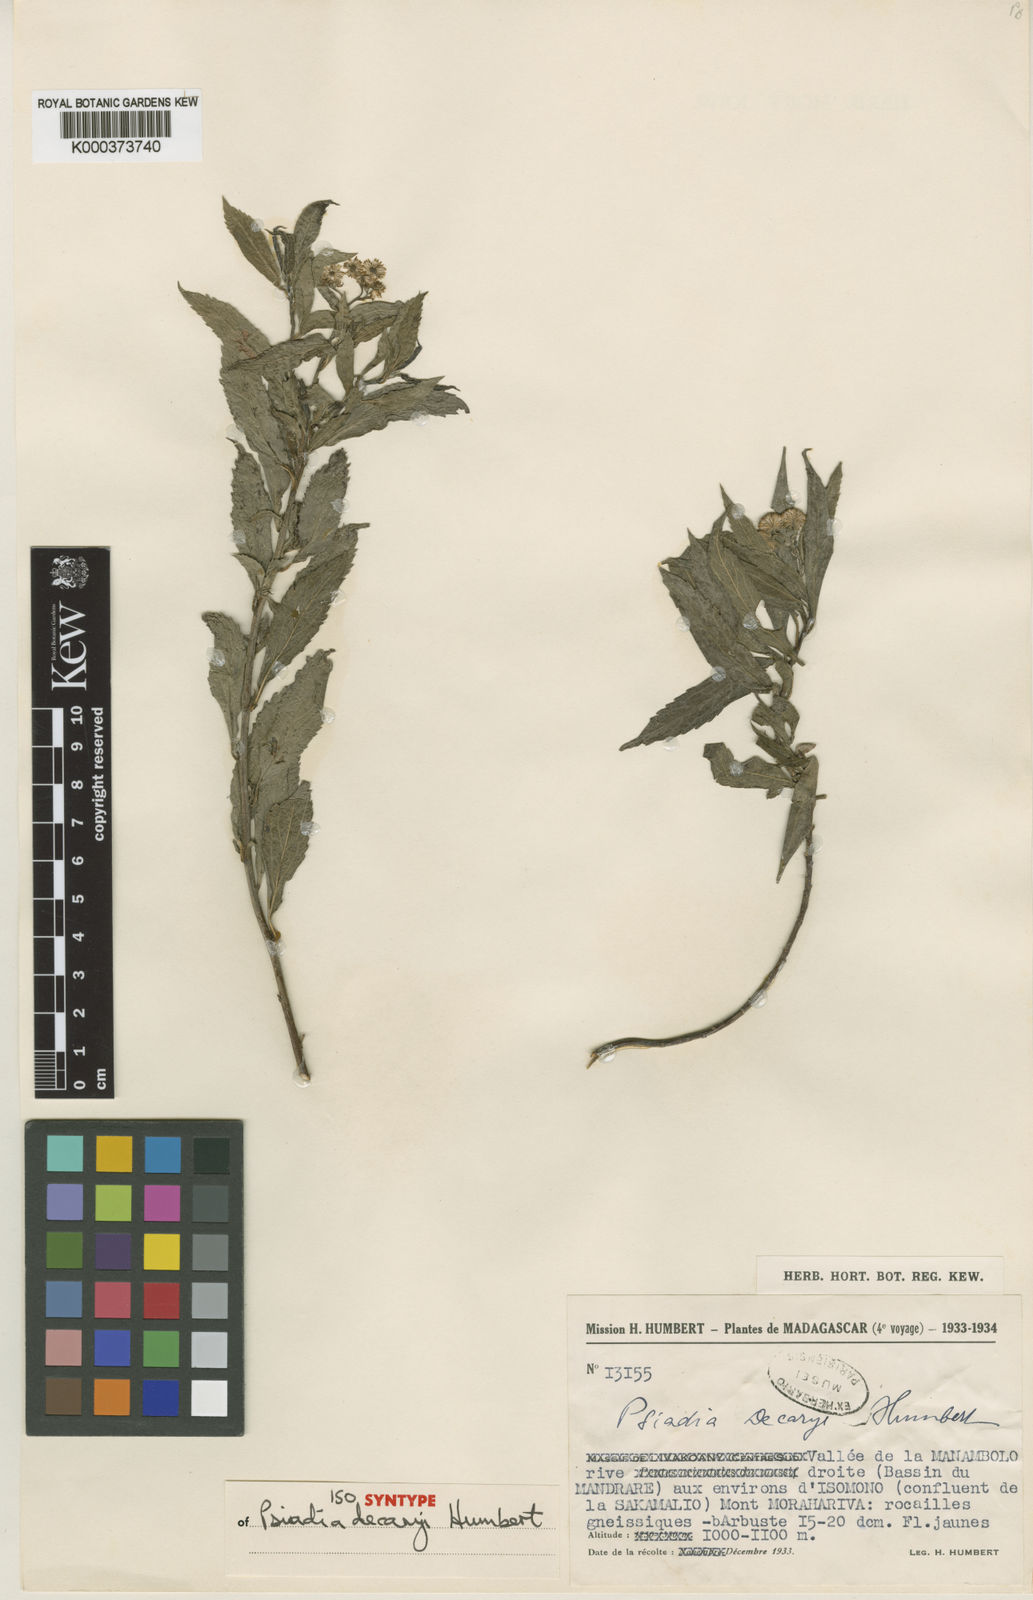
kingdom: Plantae
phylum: Tracheophyta
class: Magnoliopsida
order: Asterales
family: Asteraceae
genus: Psiadia
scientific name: Psiadia decaryi
